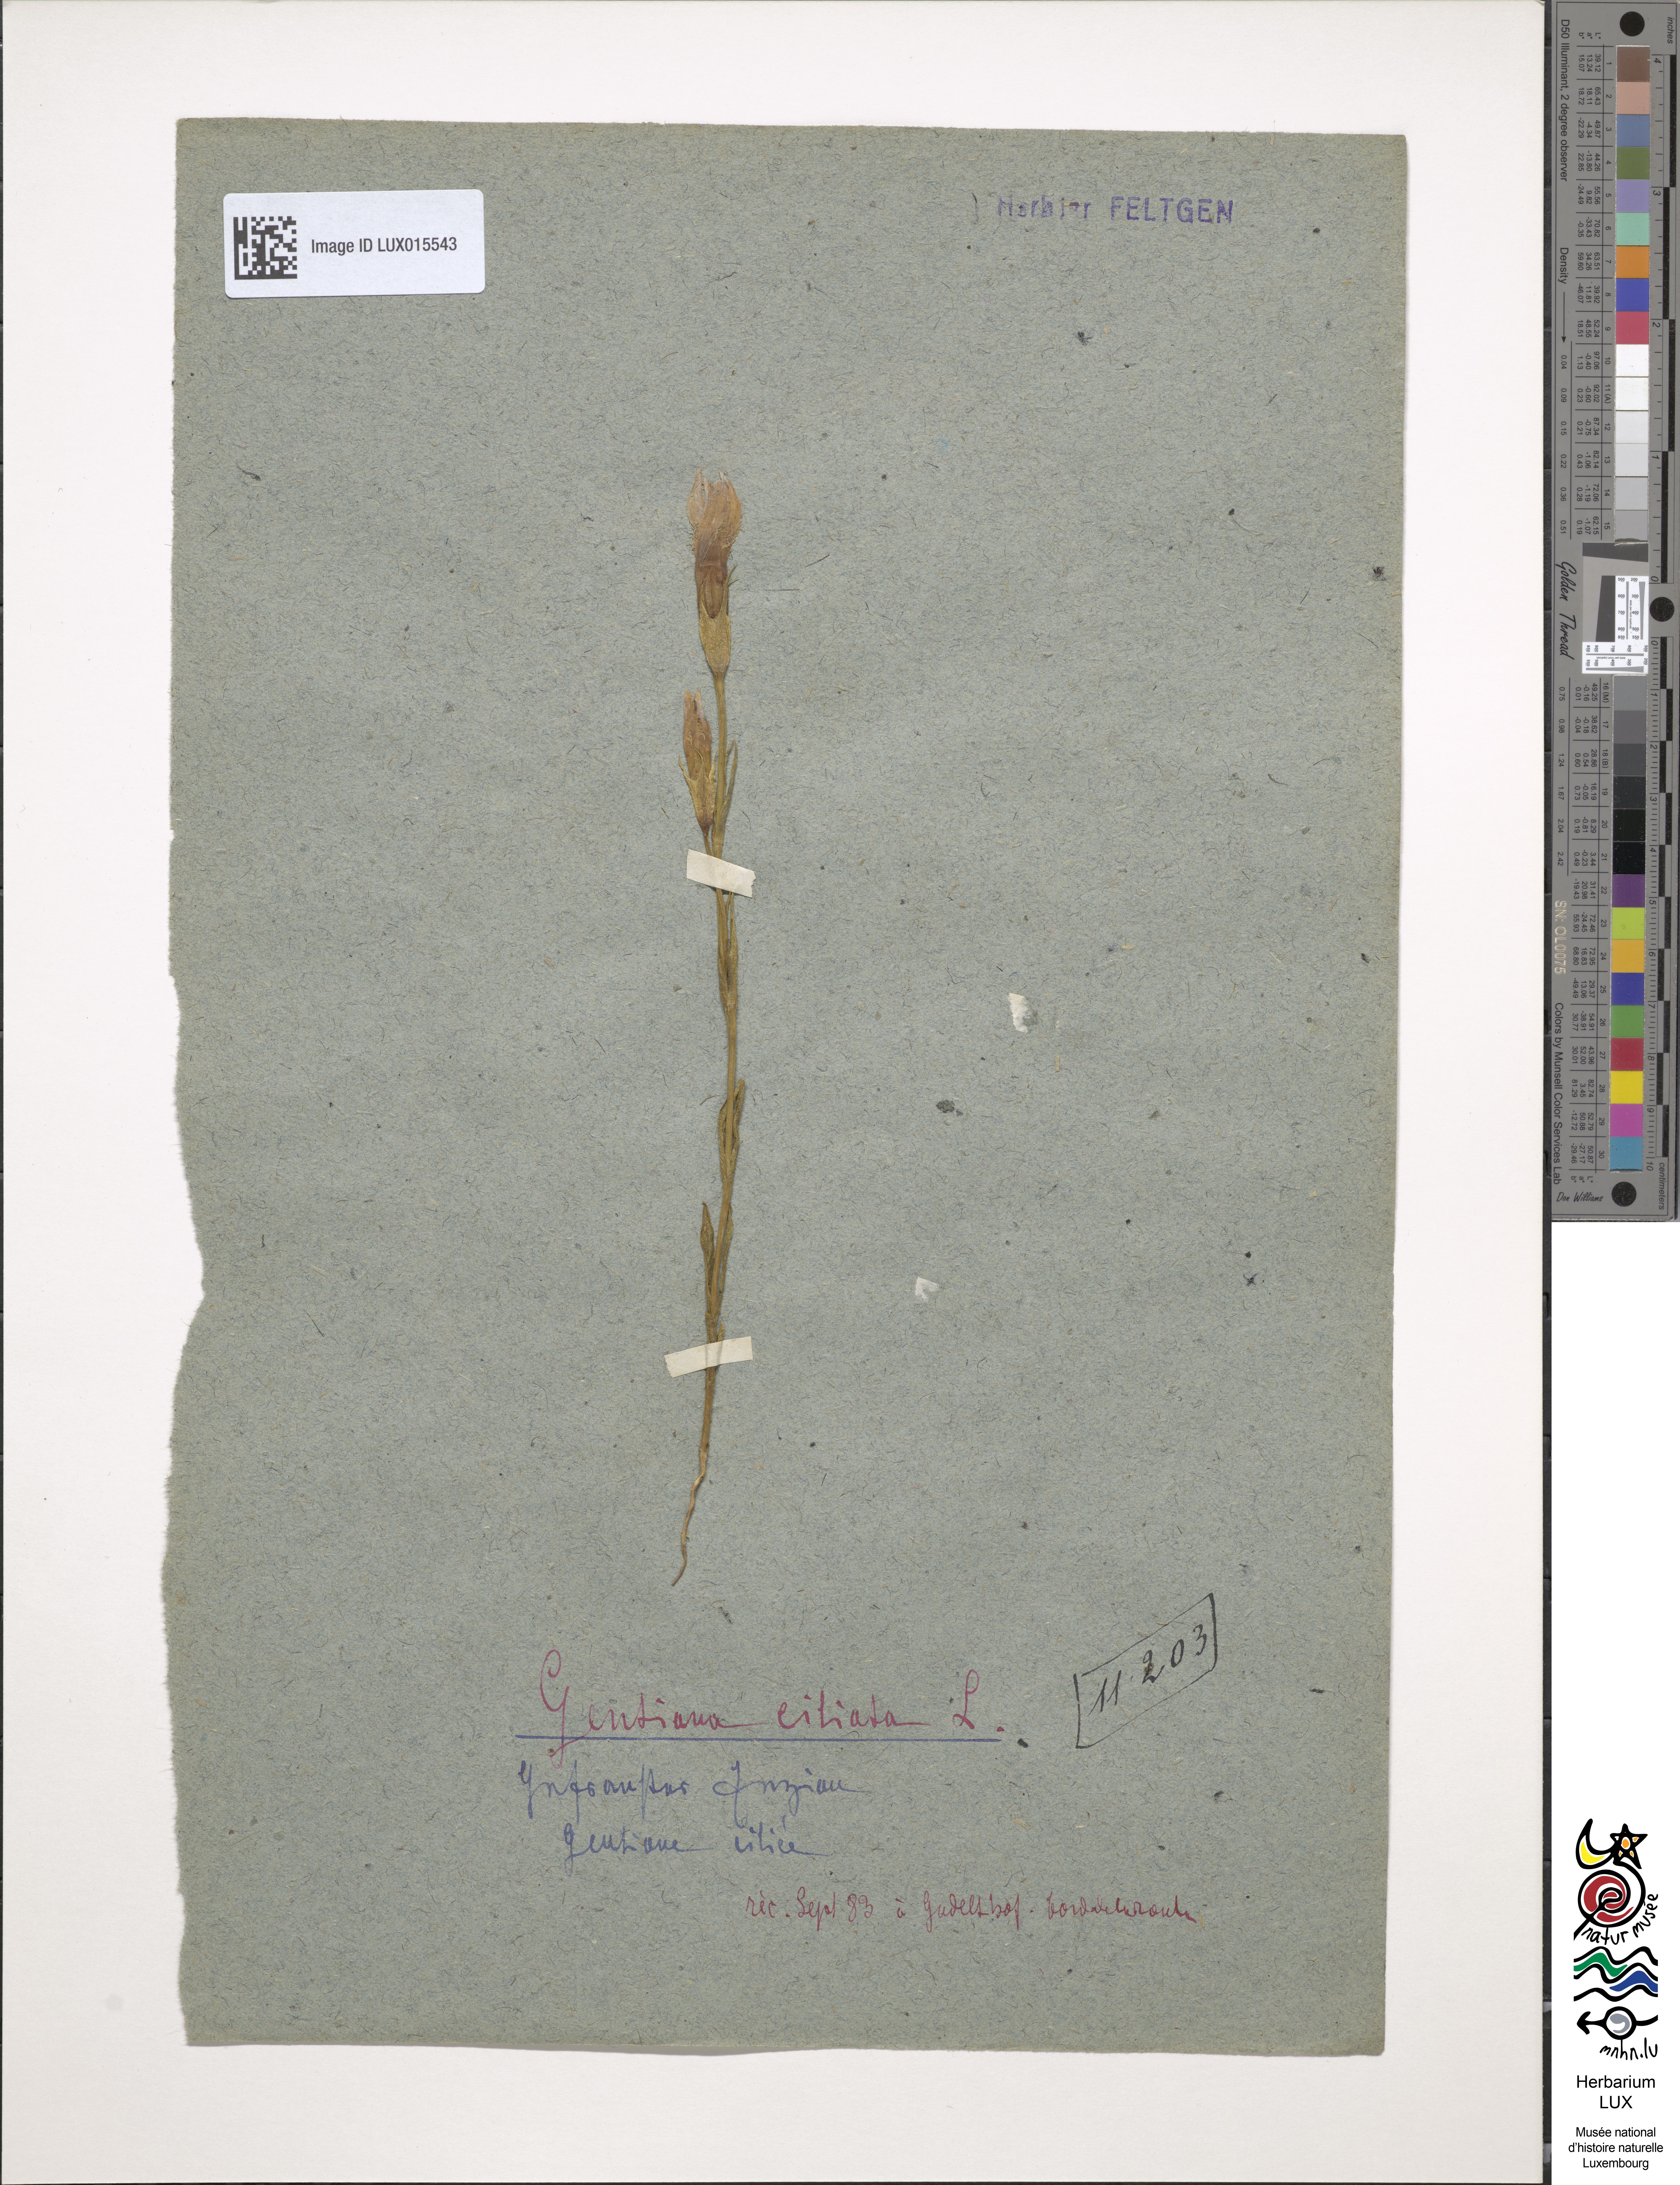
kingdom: Plantae
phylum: Tracheophyta
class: Magnoliopsida
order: Gentianales
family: Gentianaceae
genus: Gentianopsis
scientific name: Gentianopsis ciliata
